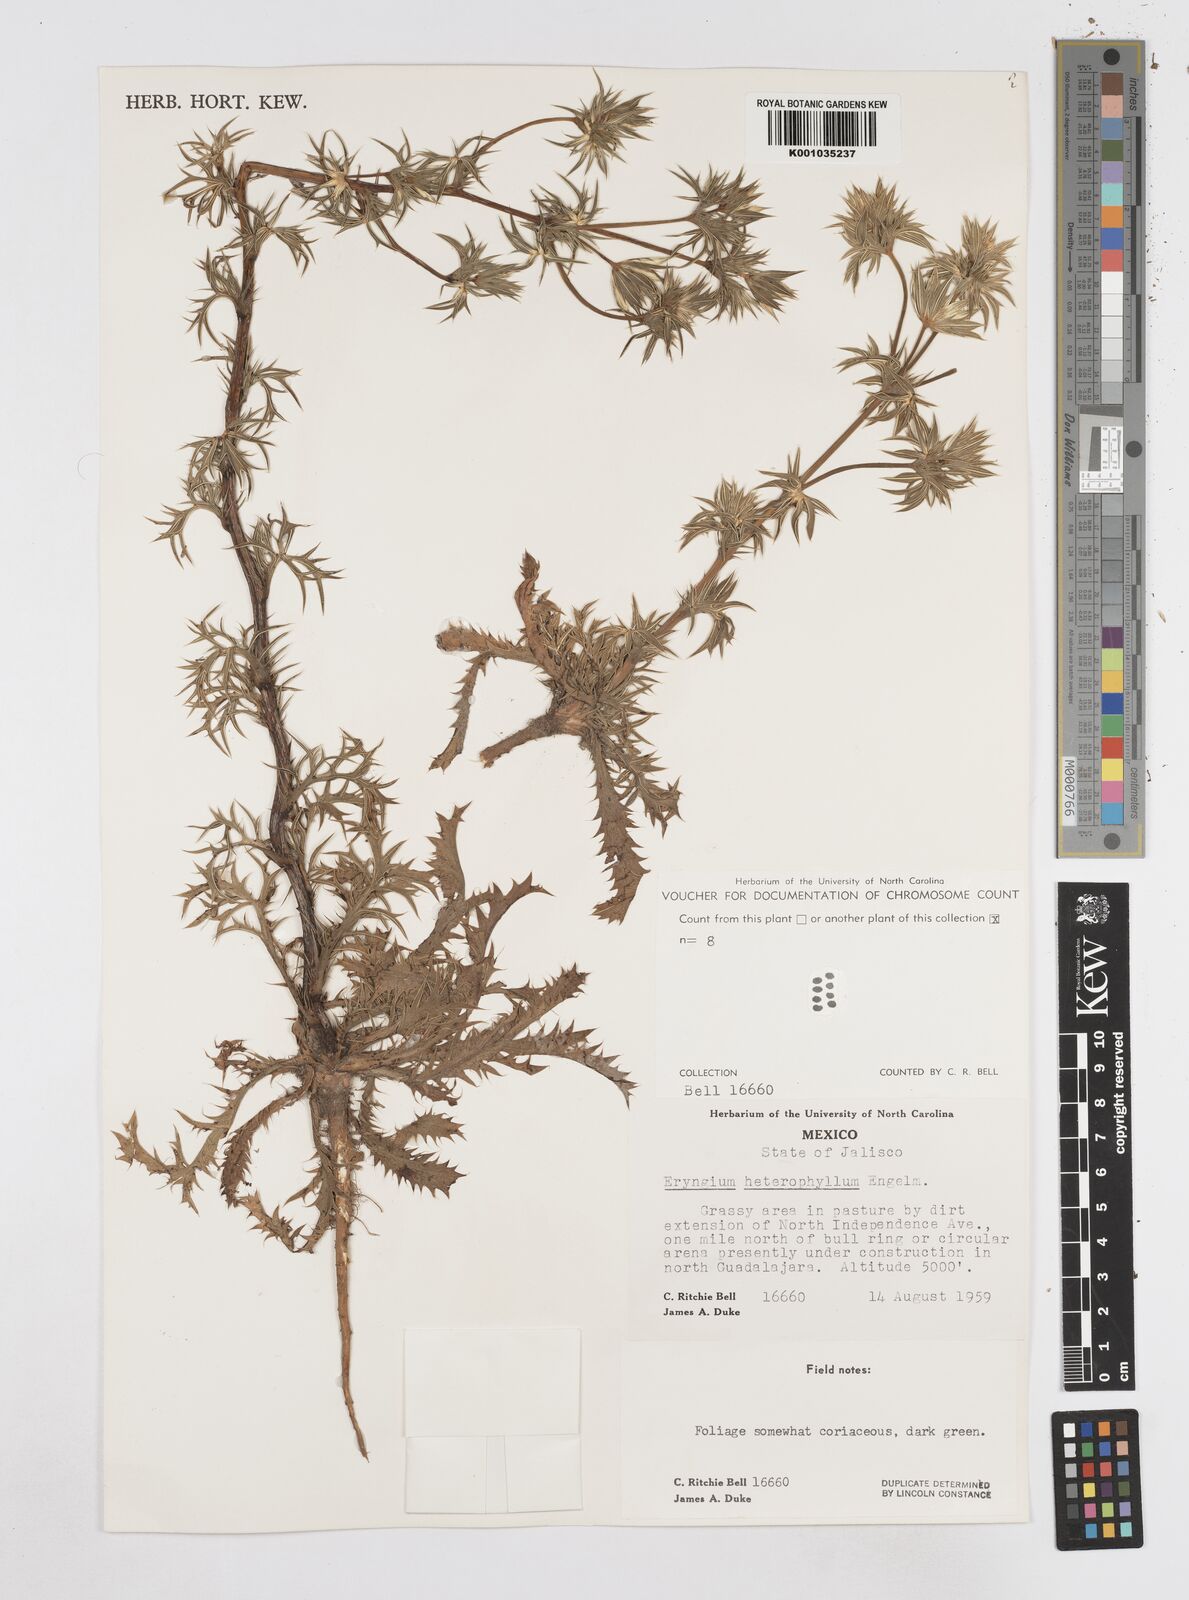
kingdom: Plantae
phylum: Tracheophyta
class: Magnoliopsida
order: Apiales
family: Apiaceae
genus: Eryngium
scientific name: Eryngium heterophyllum
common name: Mexican thistle
